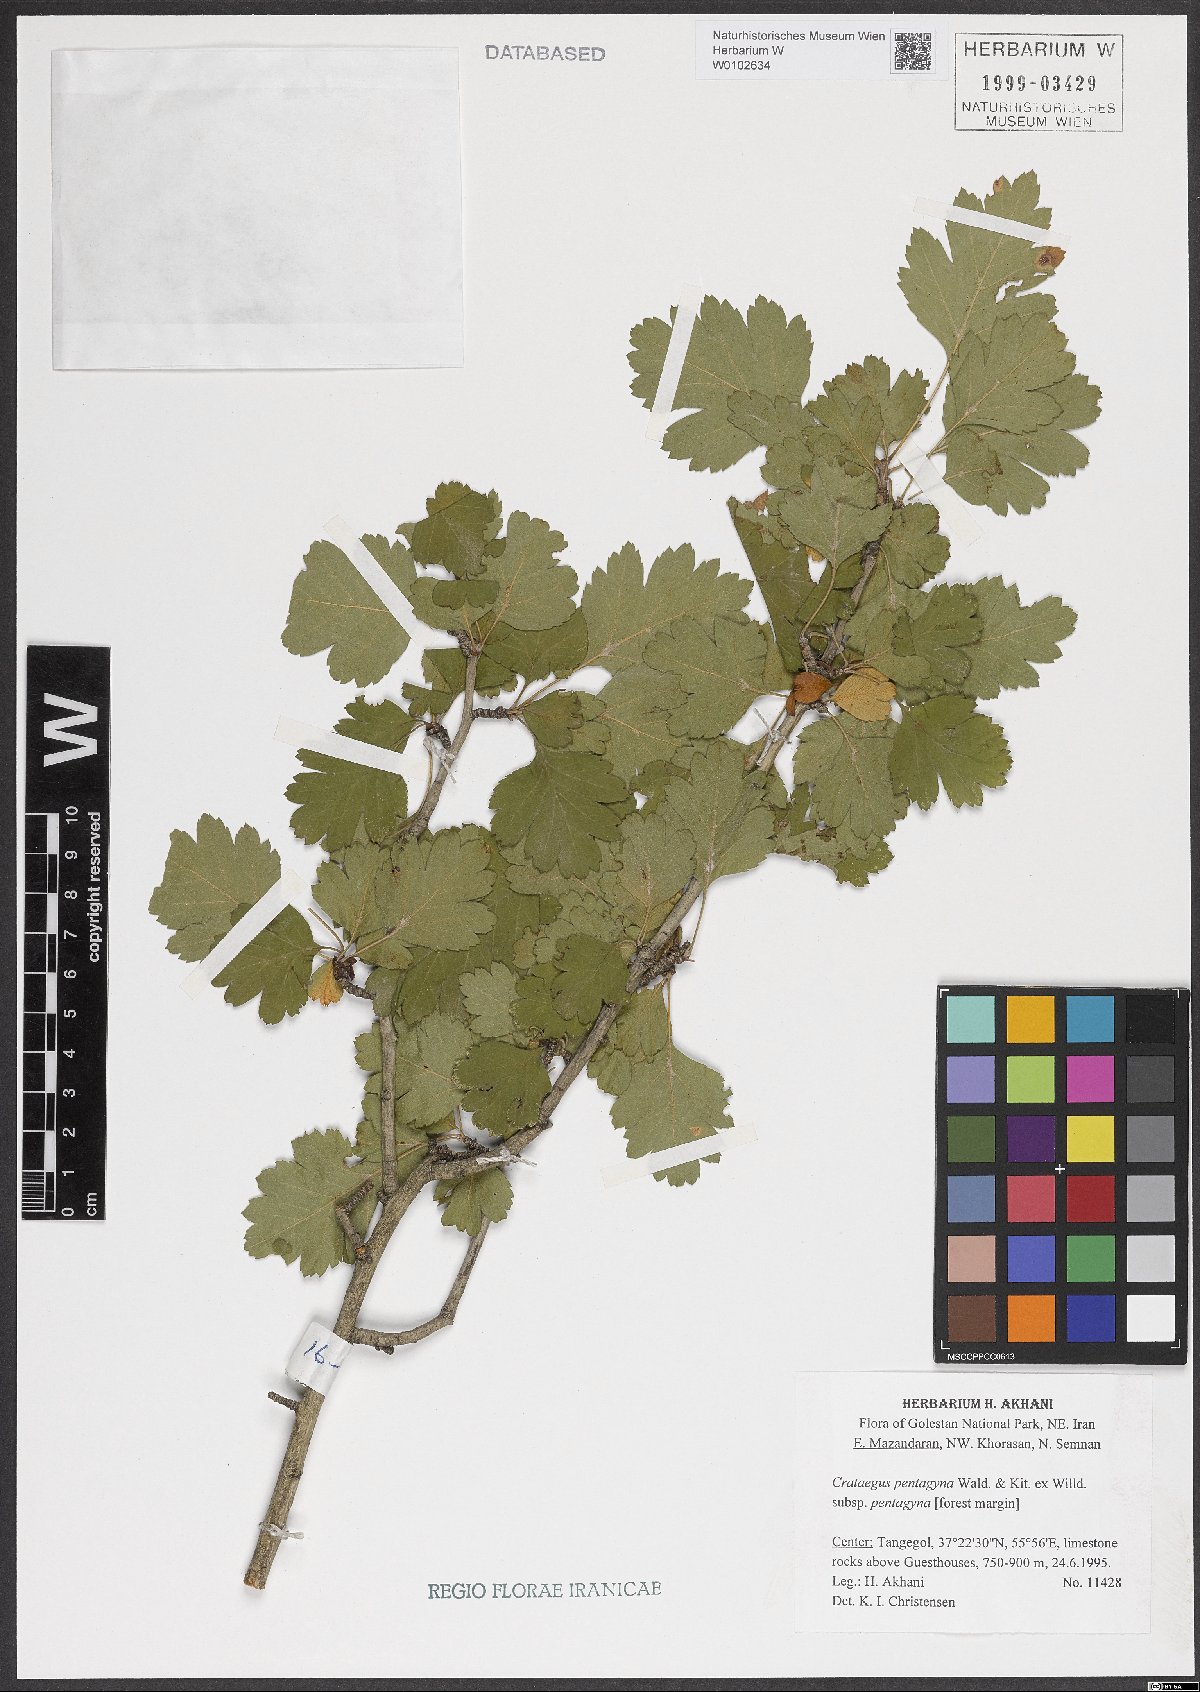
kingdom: Plantae
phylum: Tracheophyta
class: Magnoliopsida
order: Rosales
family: Rosaceae
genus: Crataegus
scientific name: Crataegus pentagyna
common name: Small-flowered black hawthorn
